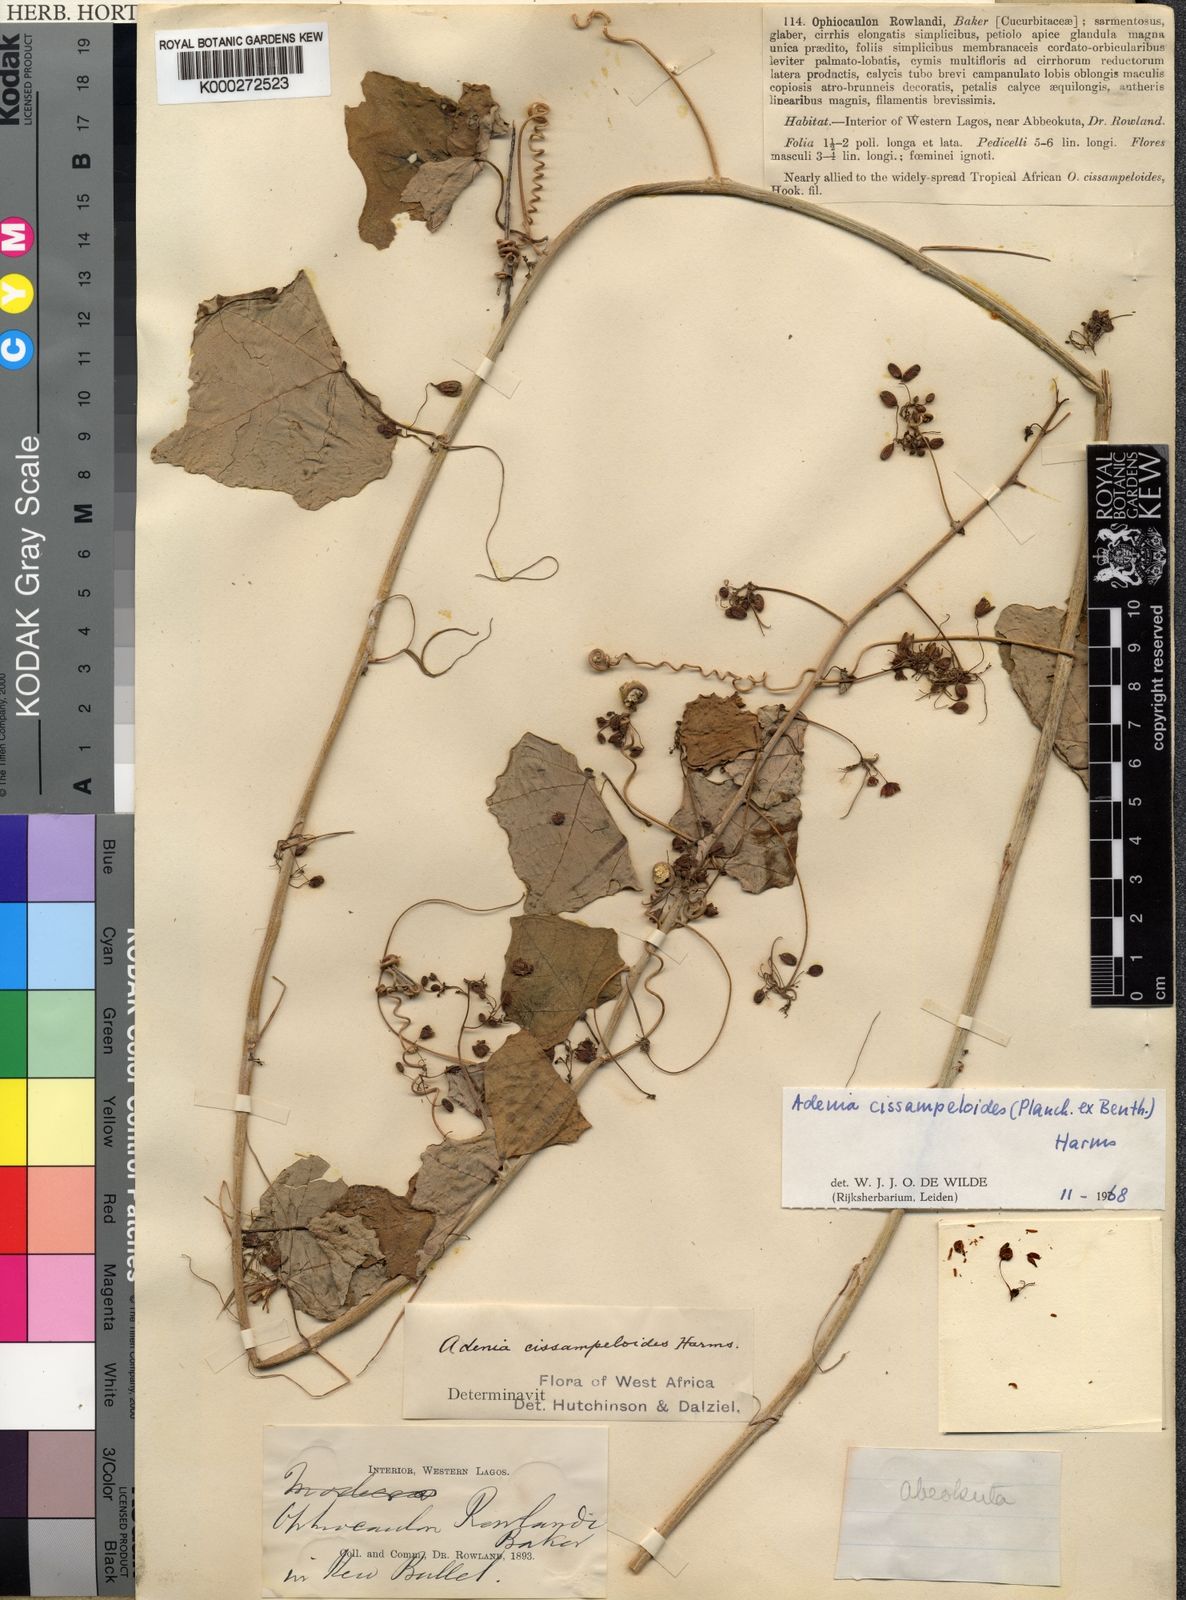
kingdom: Plantae
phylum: Tracheophyta
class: Magnoliopsida
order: Malpighiales
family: Passifloraceae
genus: Adenia
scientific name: Adenia cissampeloides
